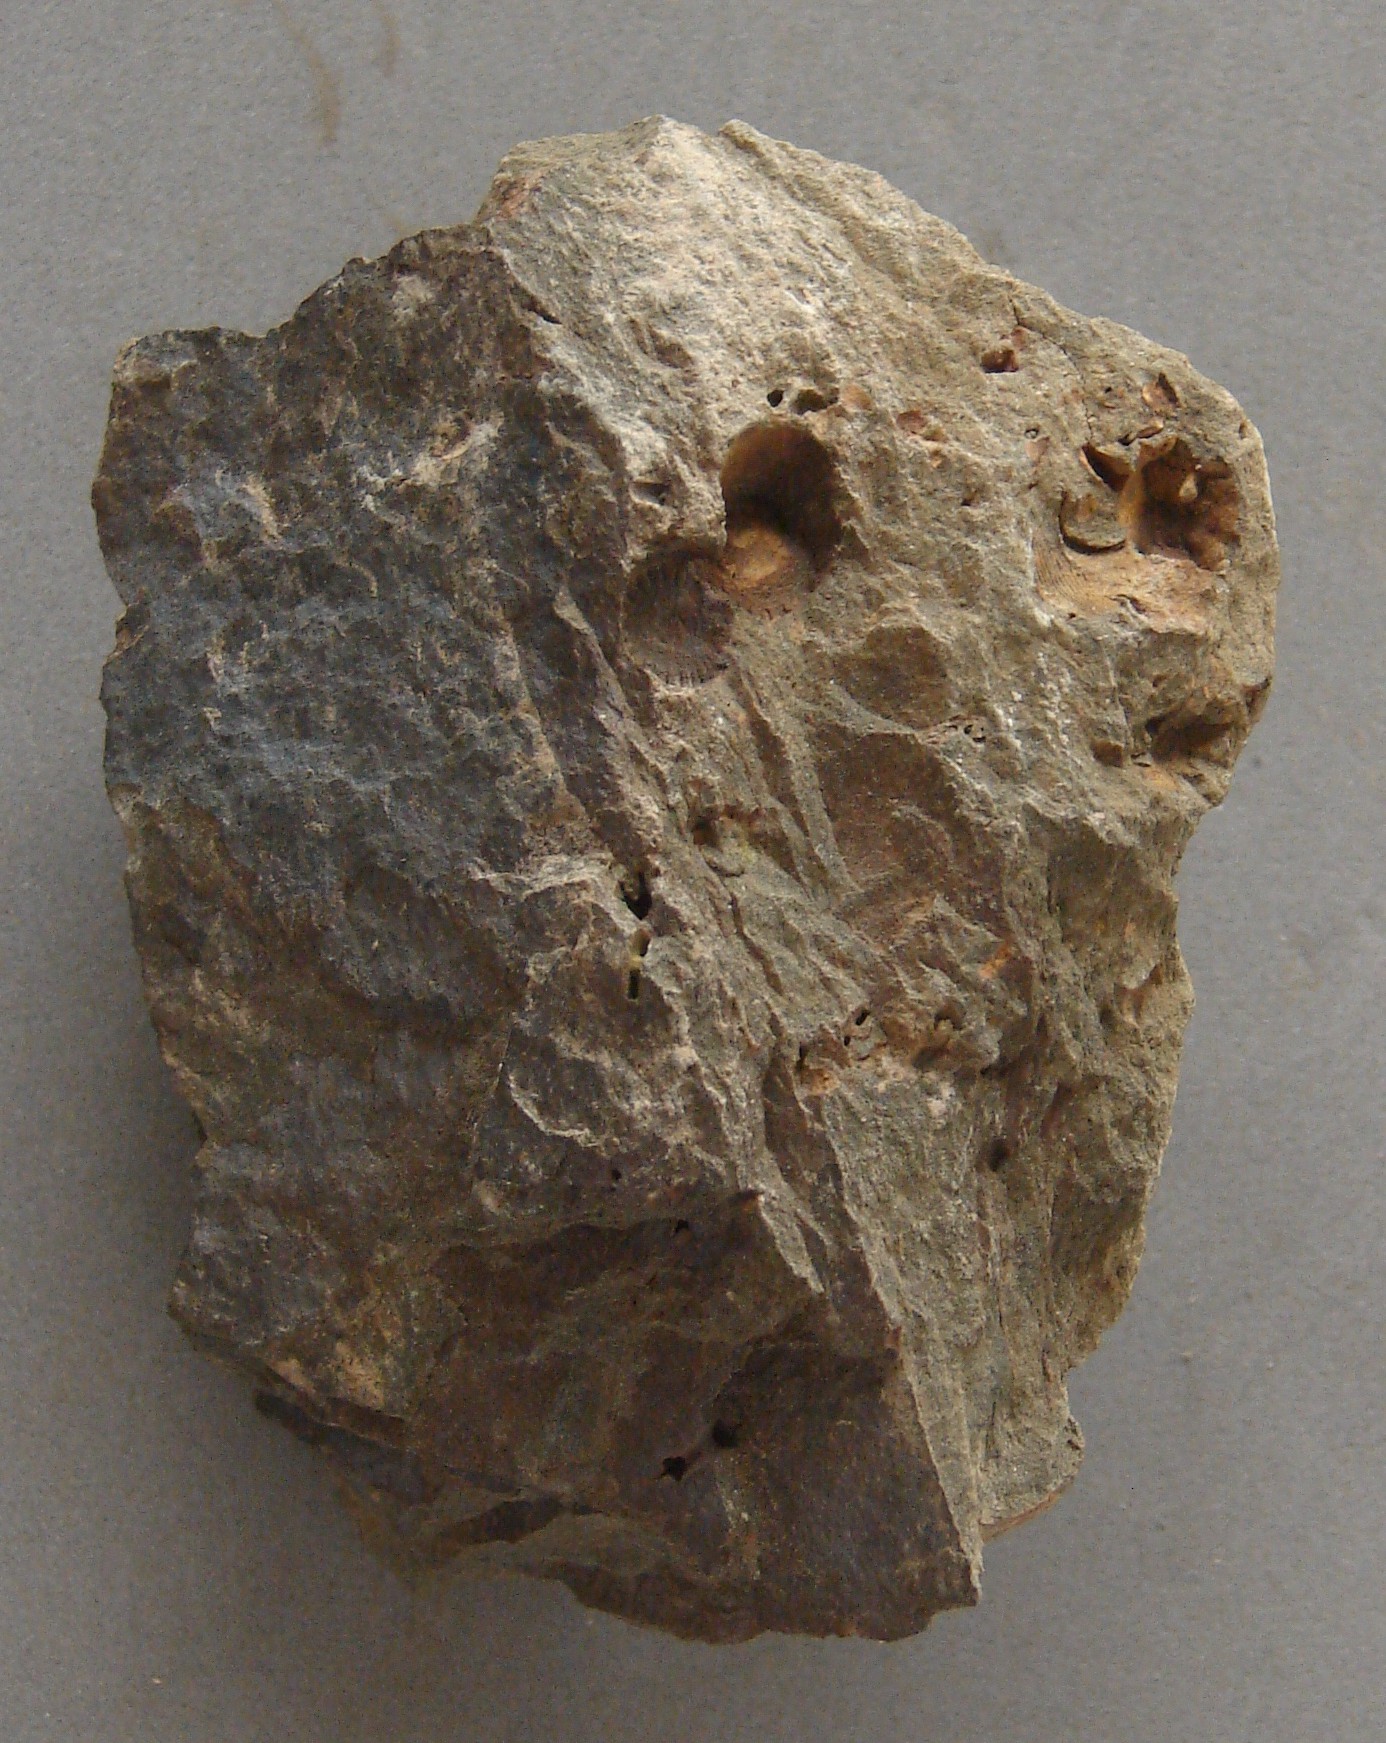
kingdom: Animalia
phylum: Echinodermata
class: Crinoidea
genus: Amurocrinus
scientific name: Amurocrinus
